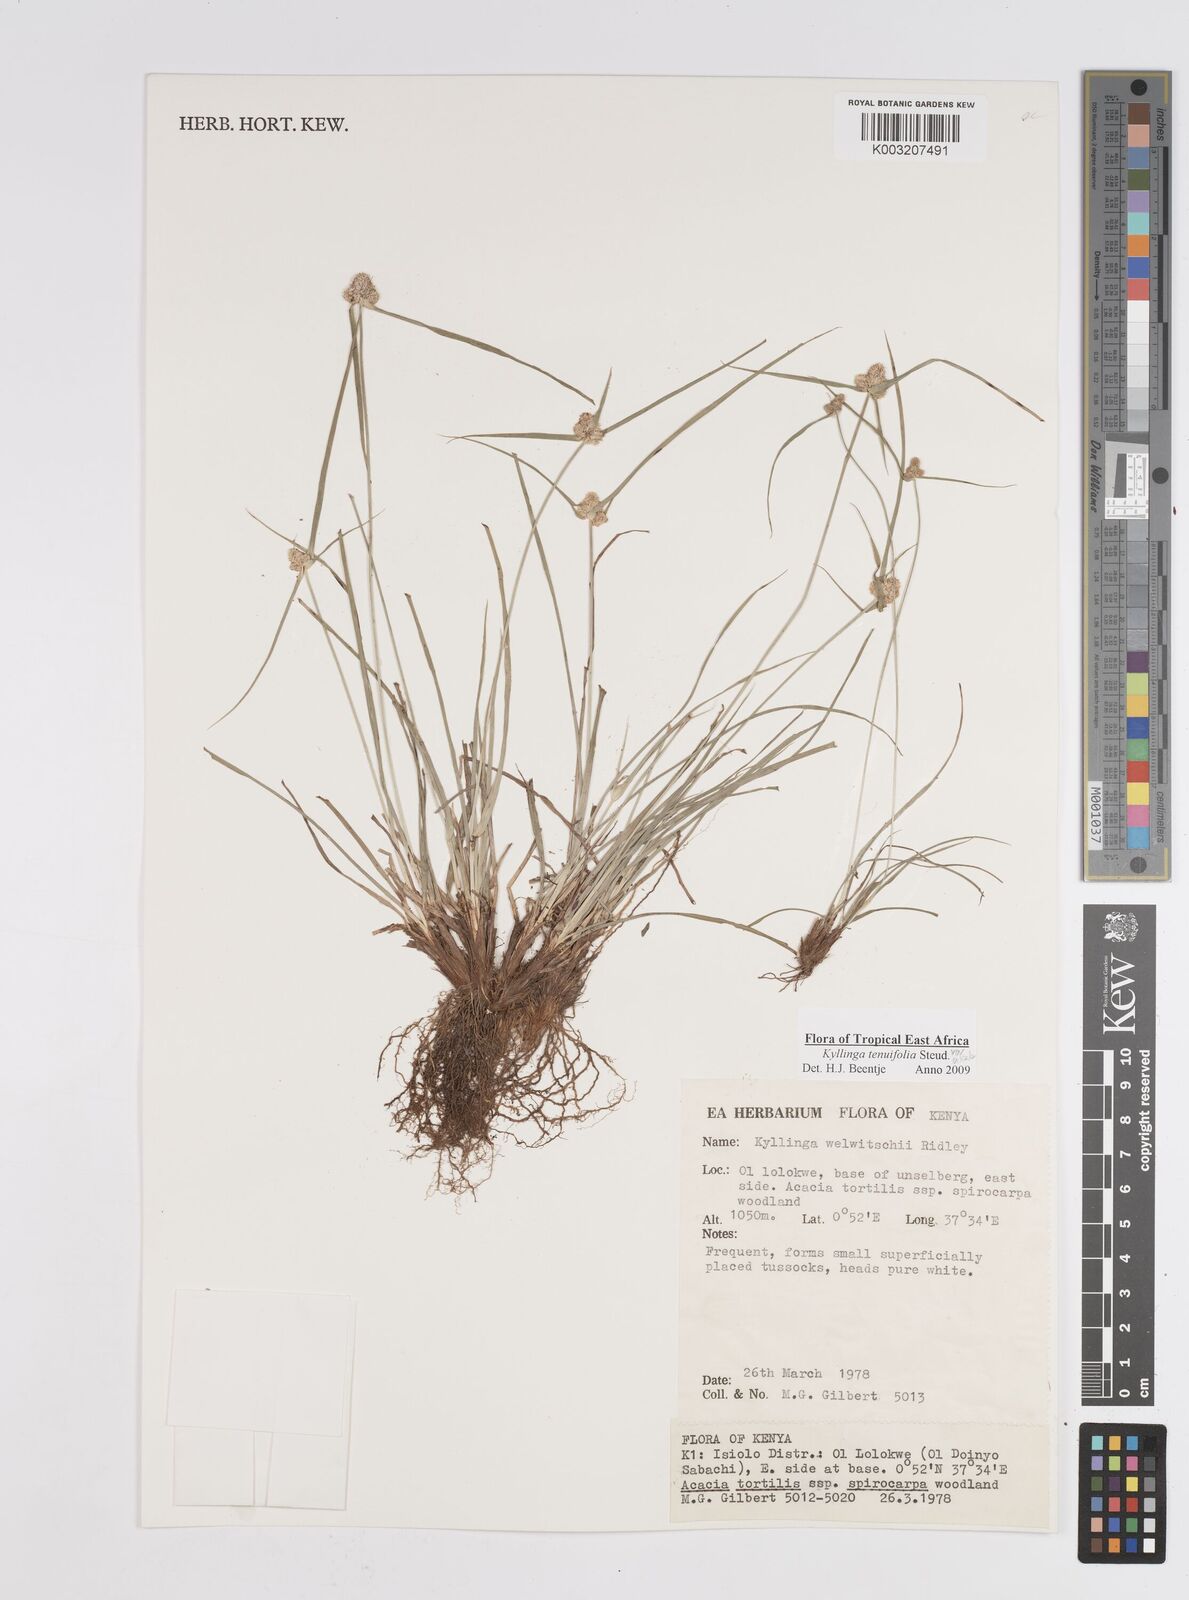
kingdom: Plantae
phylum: Tracheophyta
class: Liliopsida
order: Poales
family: Cyperaceae
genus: Cyperus
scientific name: Cyperus
